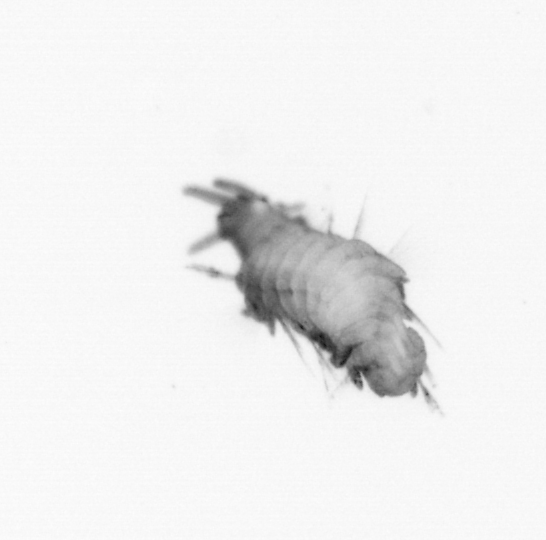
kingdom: Animalia
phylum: Annelida
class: Polychaeta
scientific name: Polychaeta
